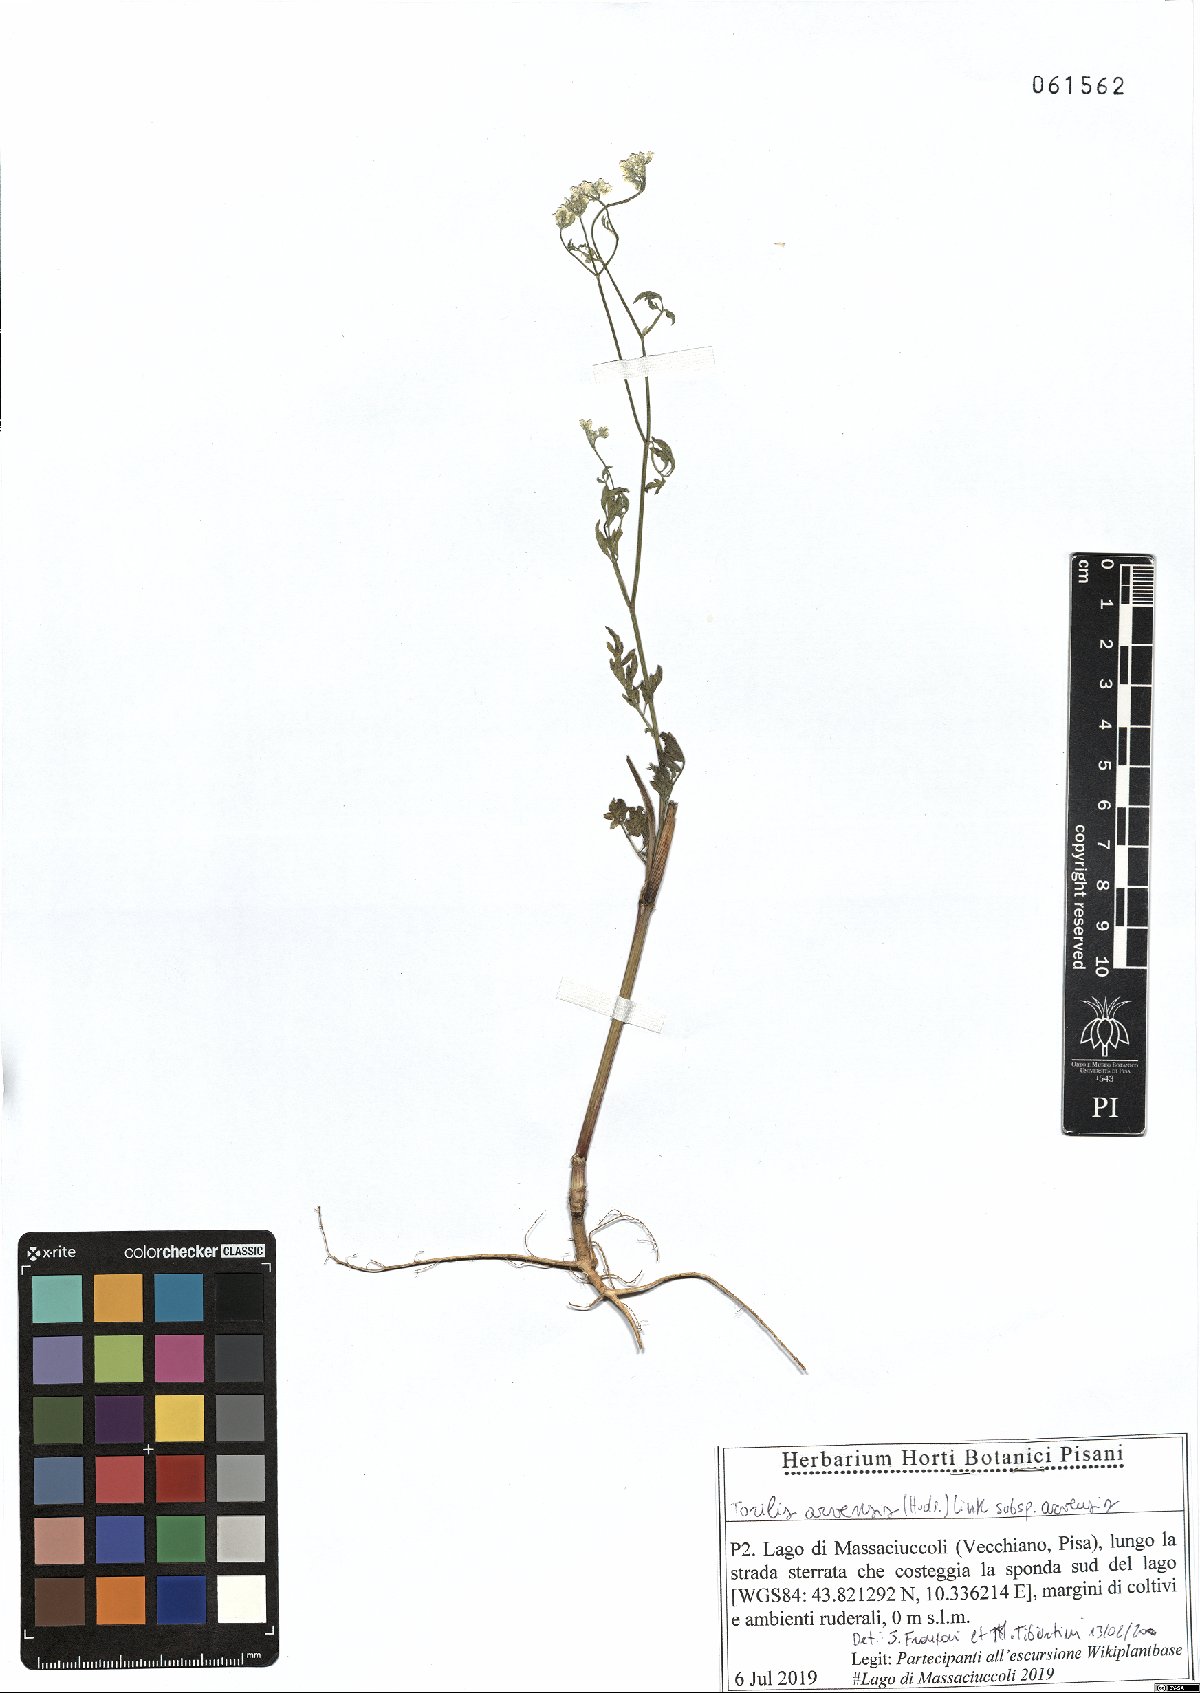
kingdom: Plantae
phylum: Tracheophyta
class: Magnoliopsida
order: Apiales
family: Apiaceae
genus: Torilis
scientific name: Torilis arvensis
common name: Spreading hedge-parsley
